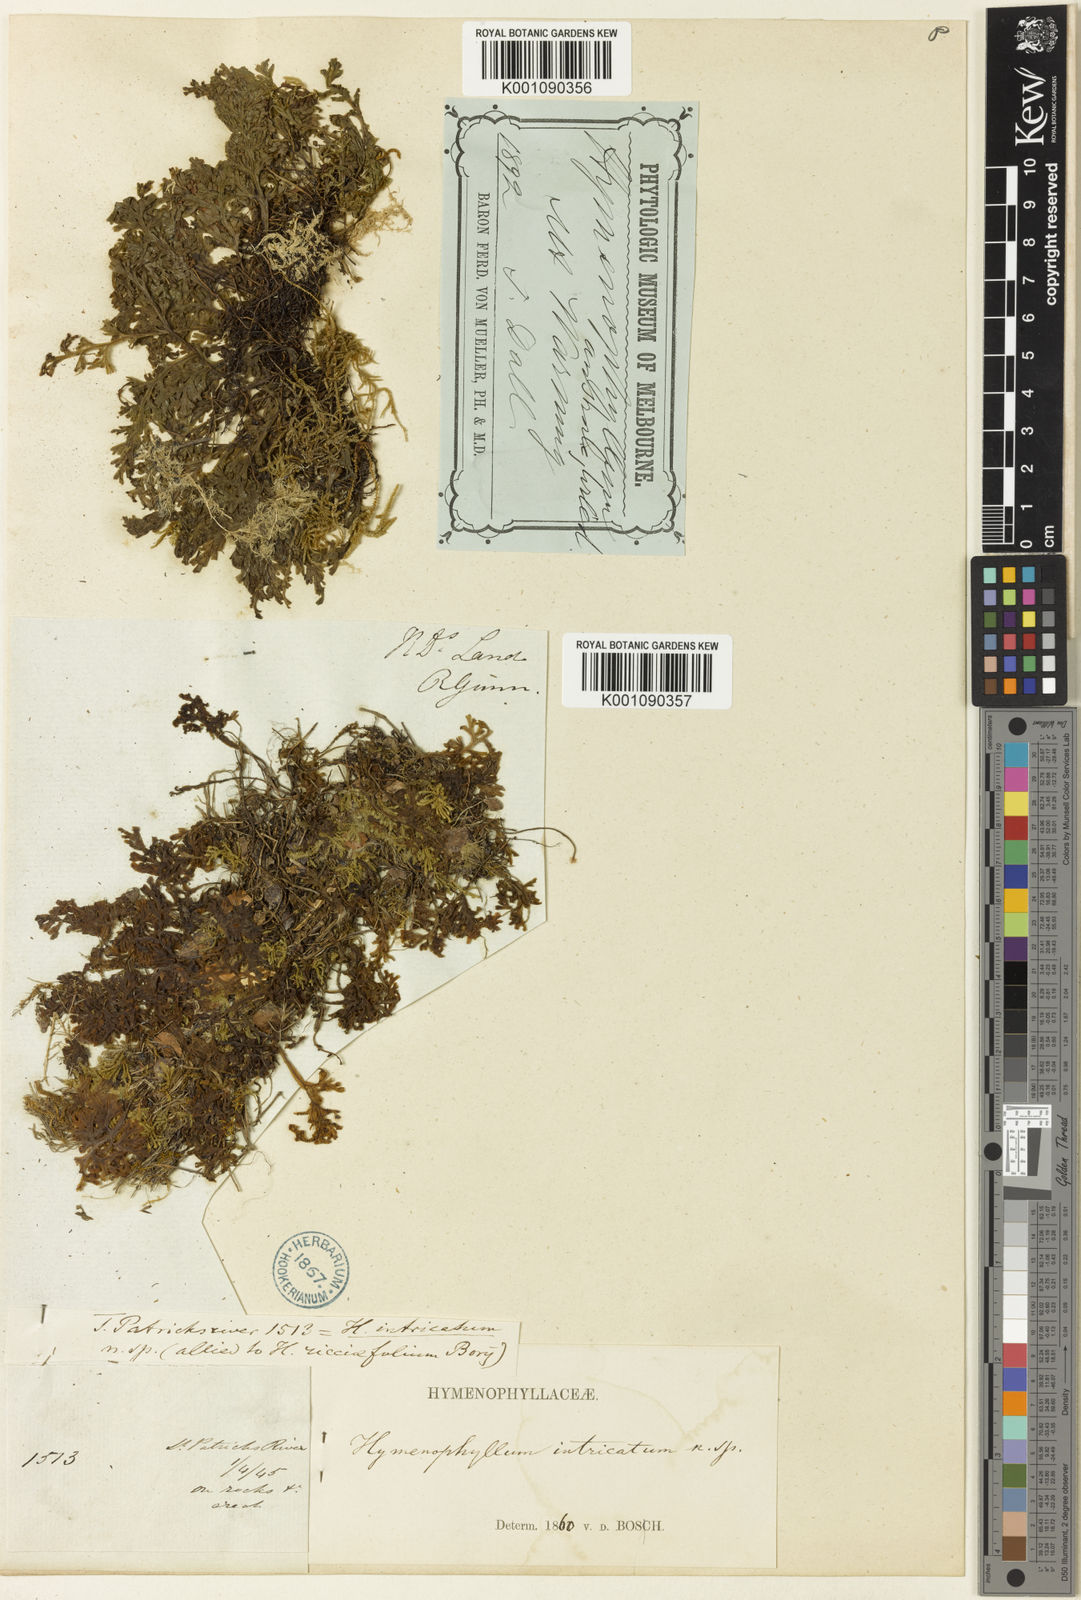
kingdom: Plantae
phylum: Tracheophyta
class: Polypodiopsida
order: Hymenophyllales
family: Hymenophyllaceae
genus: Hymenophyllum
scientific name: Hymenophyllum australe
